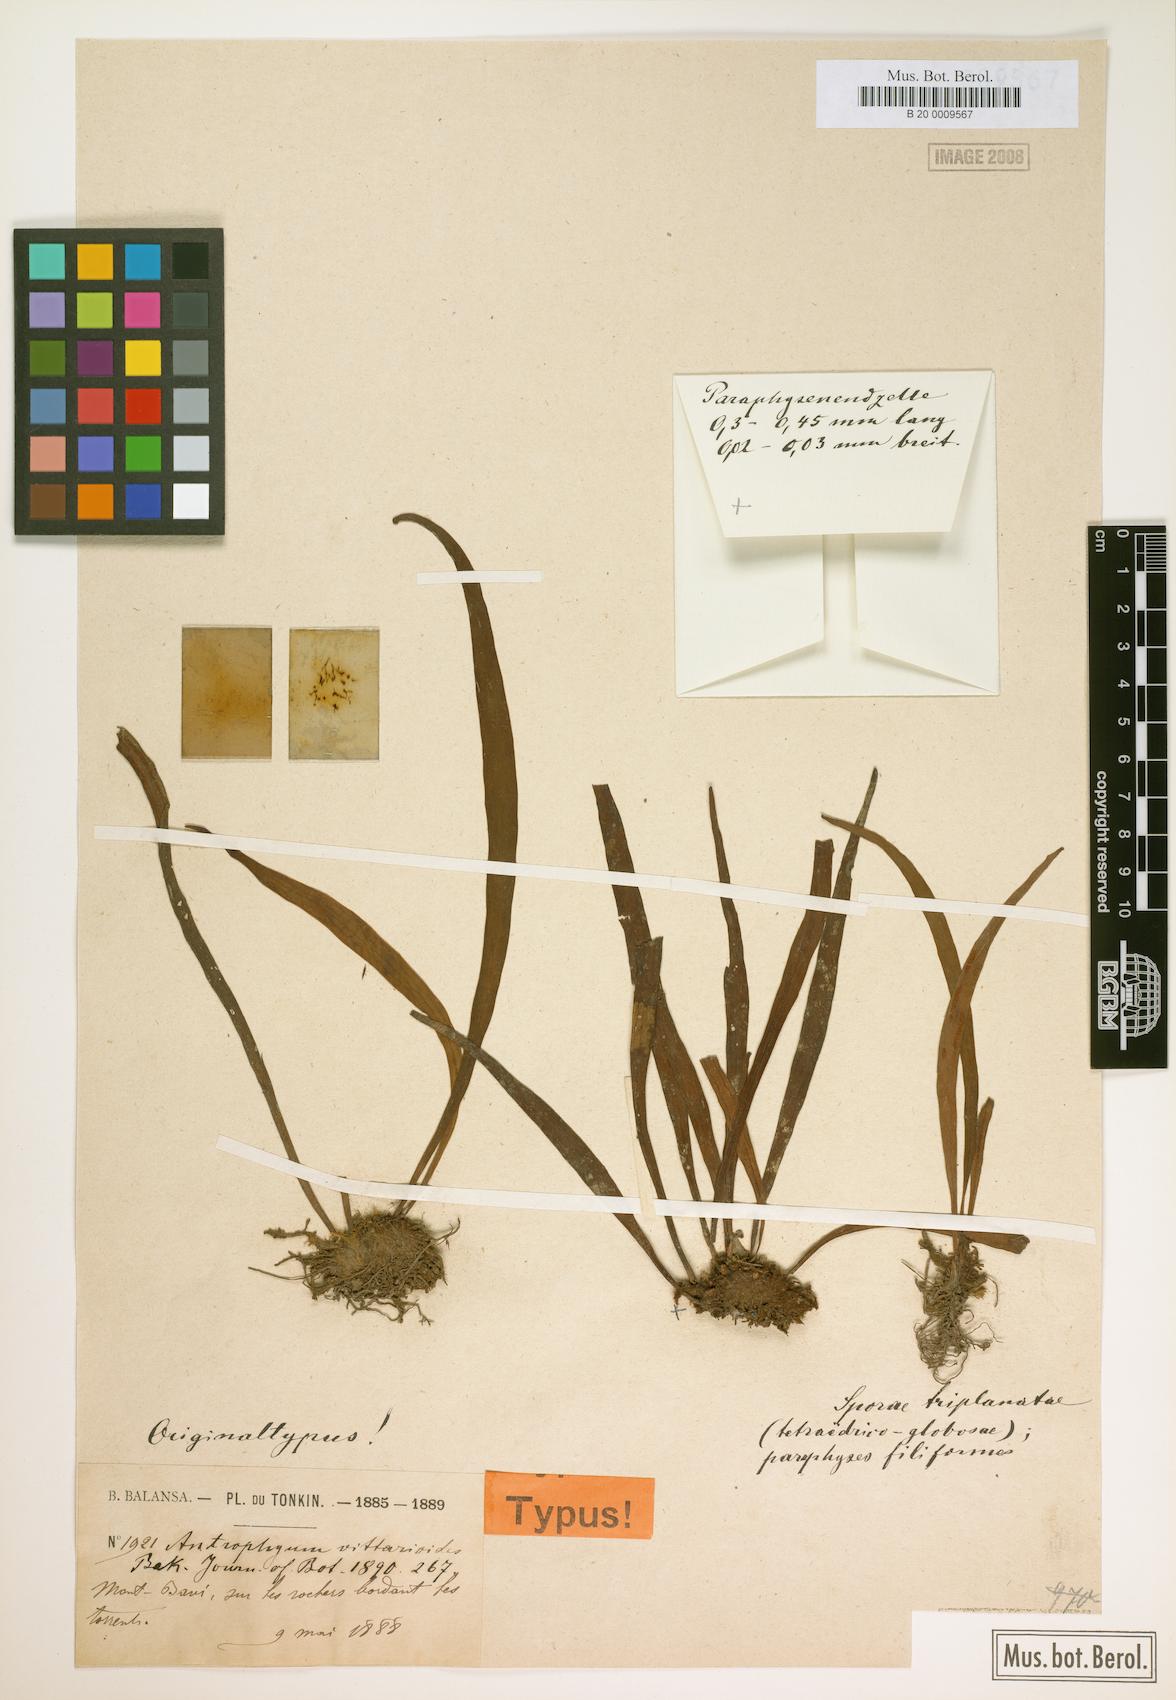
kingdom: Plantae
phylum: Tracheophyta
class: Polypodiopsida
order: Polypodiales
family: Pteridaceae
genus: Antrophyum
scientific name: Antrophyum vittarioides
